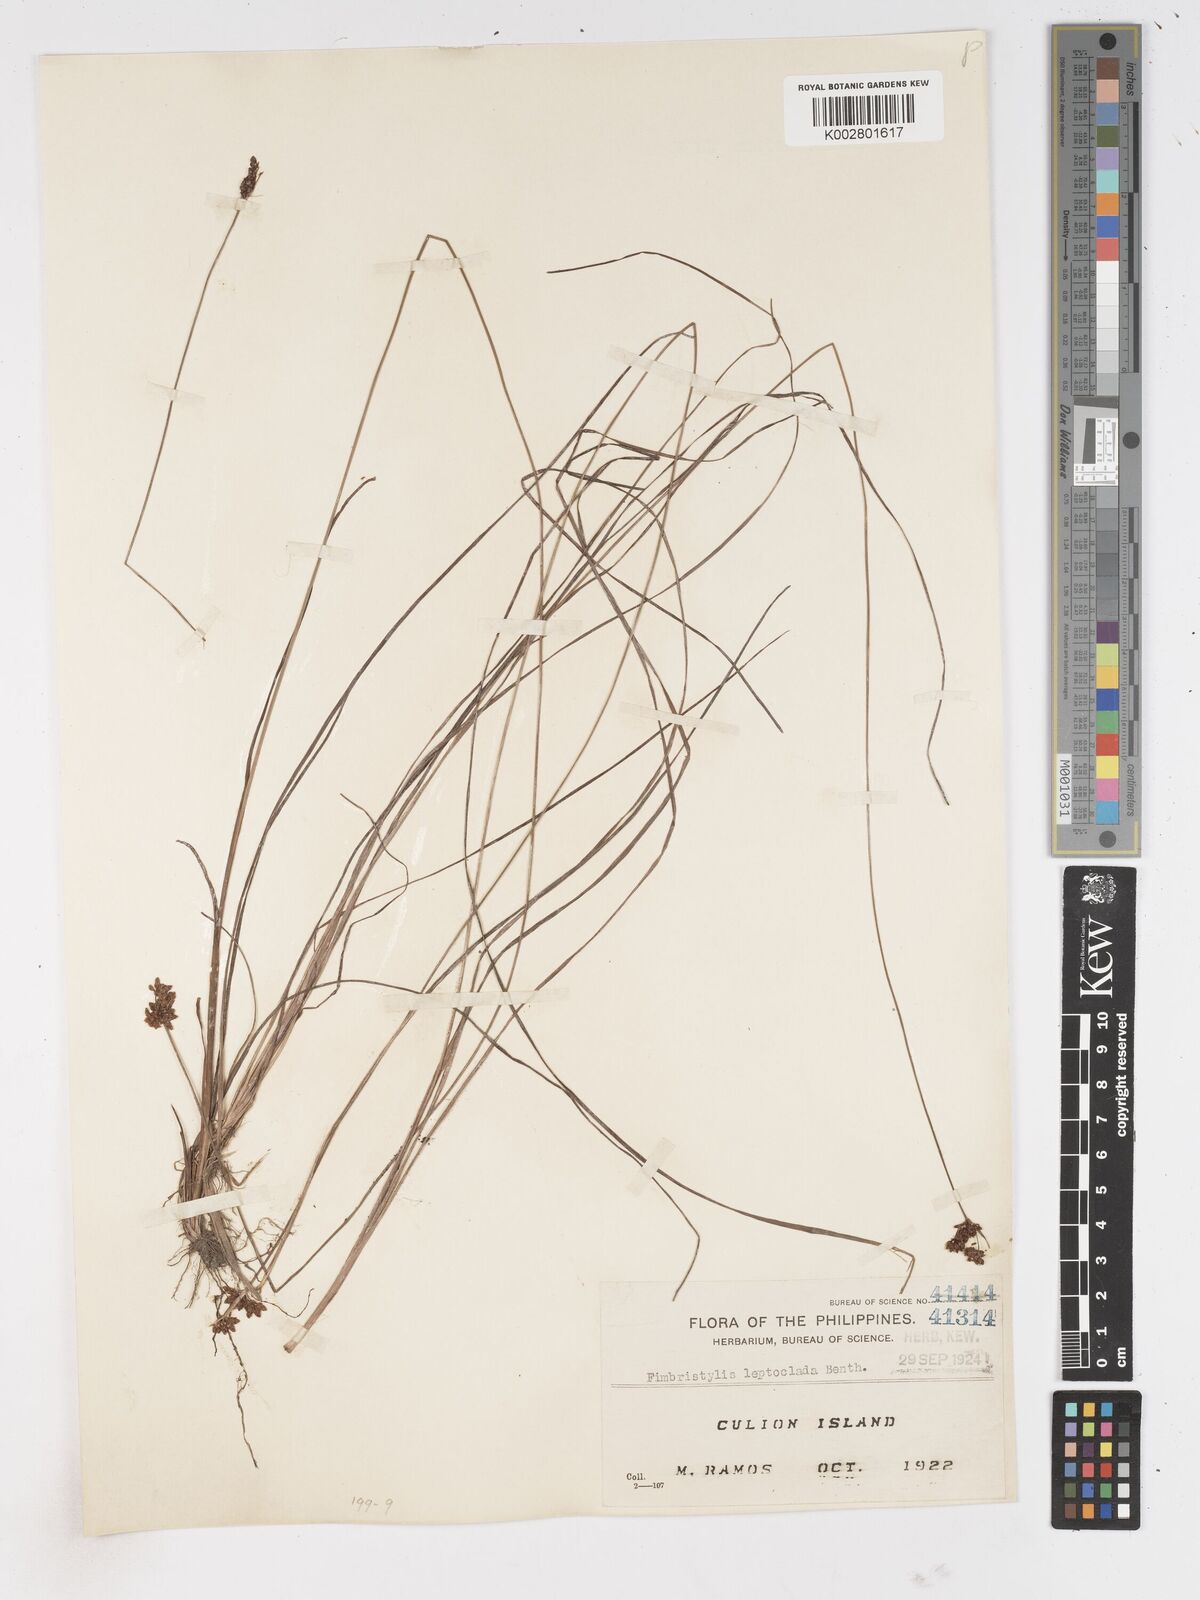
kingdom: Plantae
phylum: Tracheophyta
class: Liliopsida
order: Poales
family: Cyperaceae
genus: Fimbristylis
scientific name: Fimbristylis leptoclada
